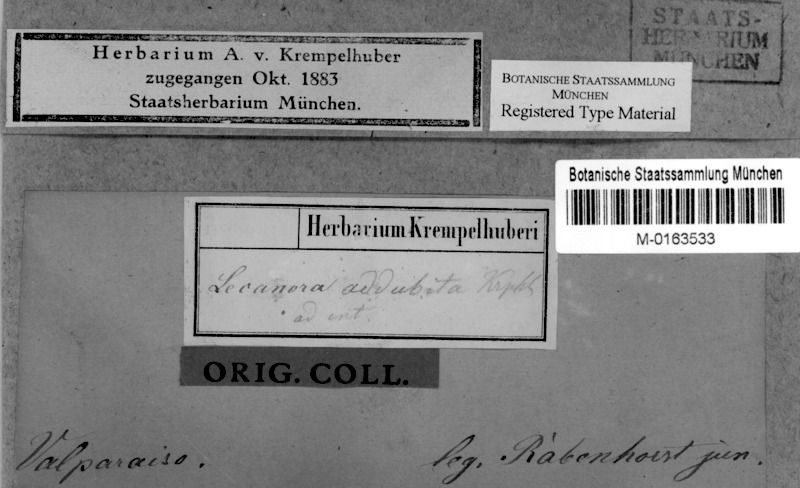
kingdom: Fungi
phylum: Ascomycota
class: Lecanoromycetes
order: Lecanorales
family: Lecanoraceae
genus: Lecanora
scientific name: Lecanora addubitata
